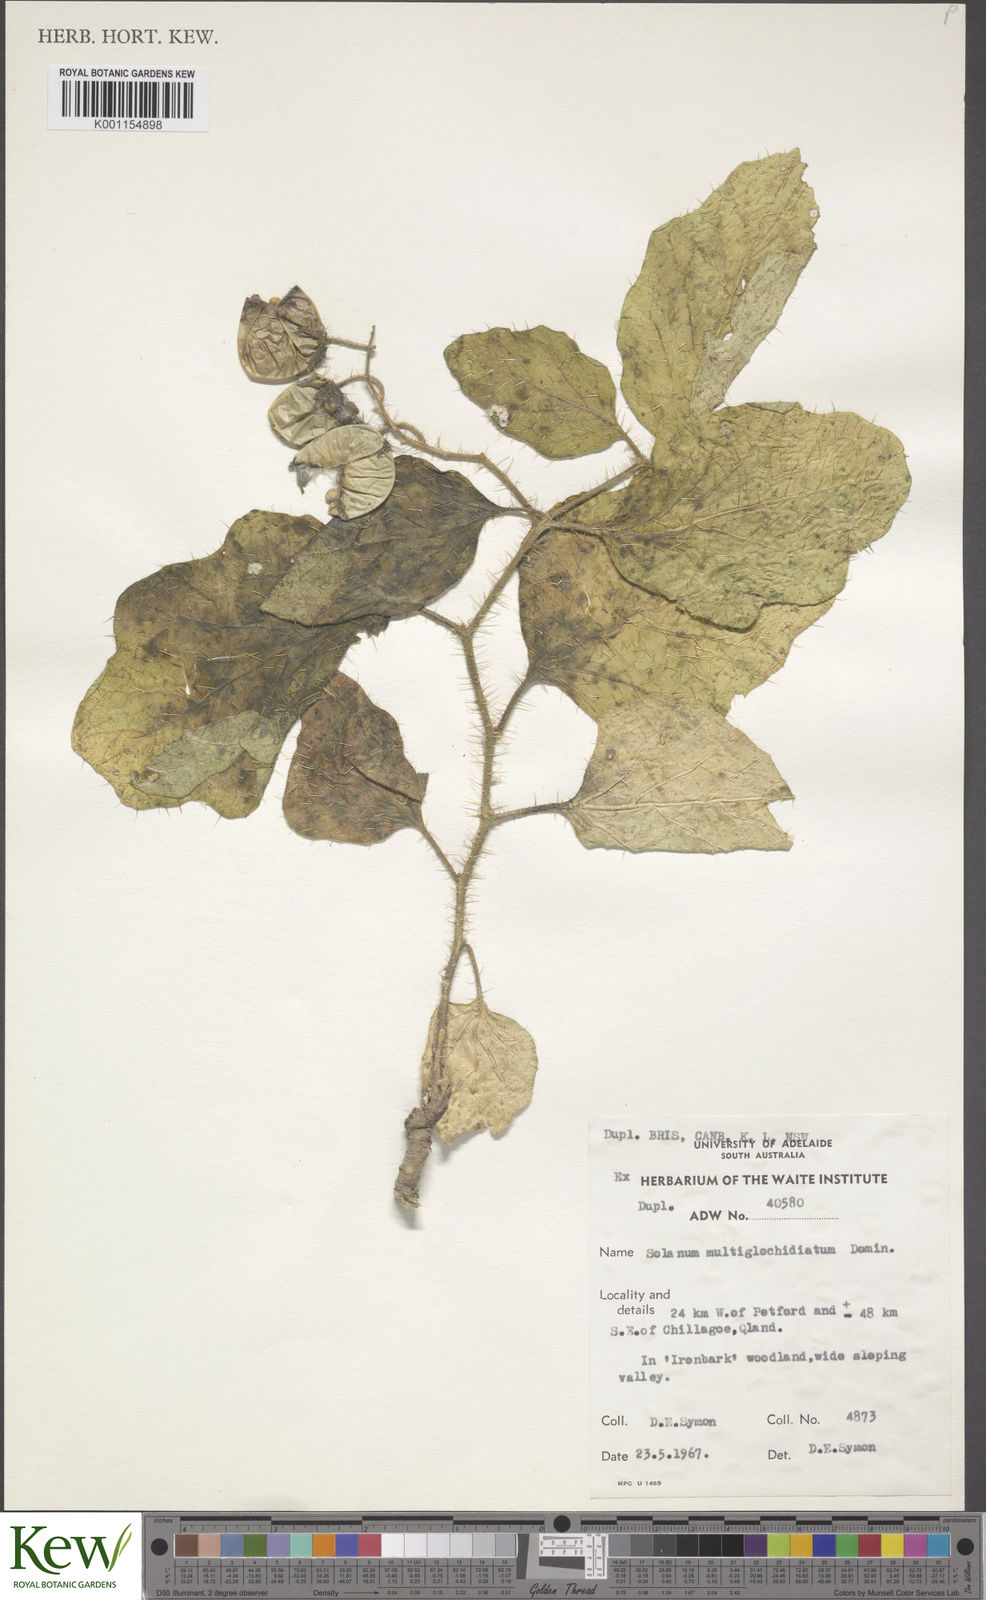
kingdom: Plantae
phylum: Tracheophyta
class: Magnoliopsida
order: Solanales
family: Solanaceae
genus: Solanum
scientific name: Solanum multiglochidiatum
